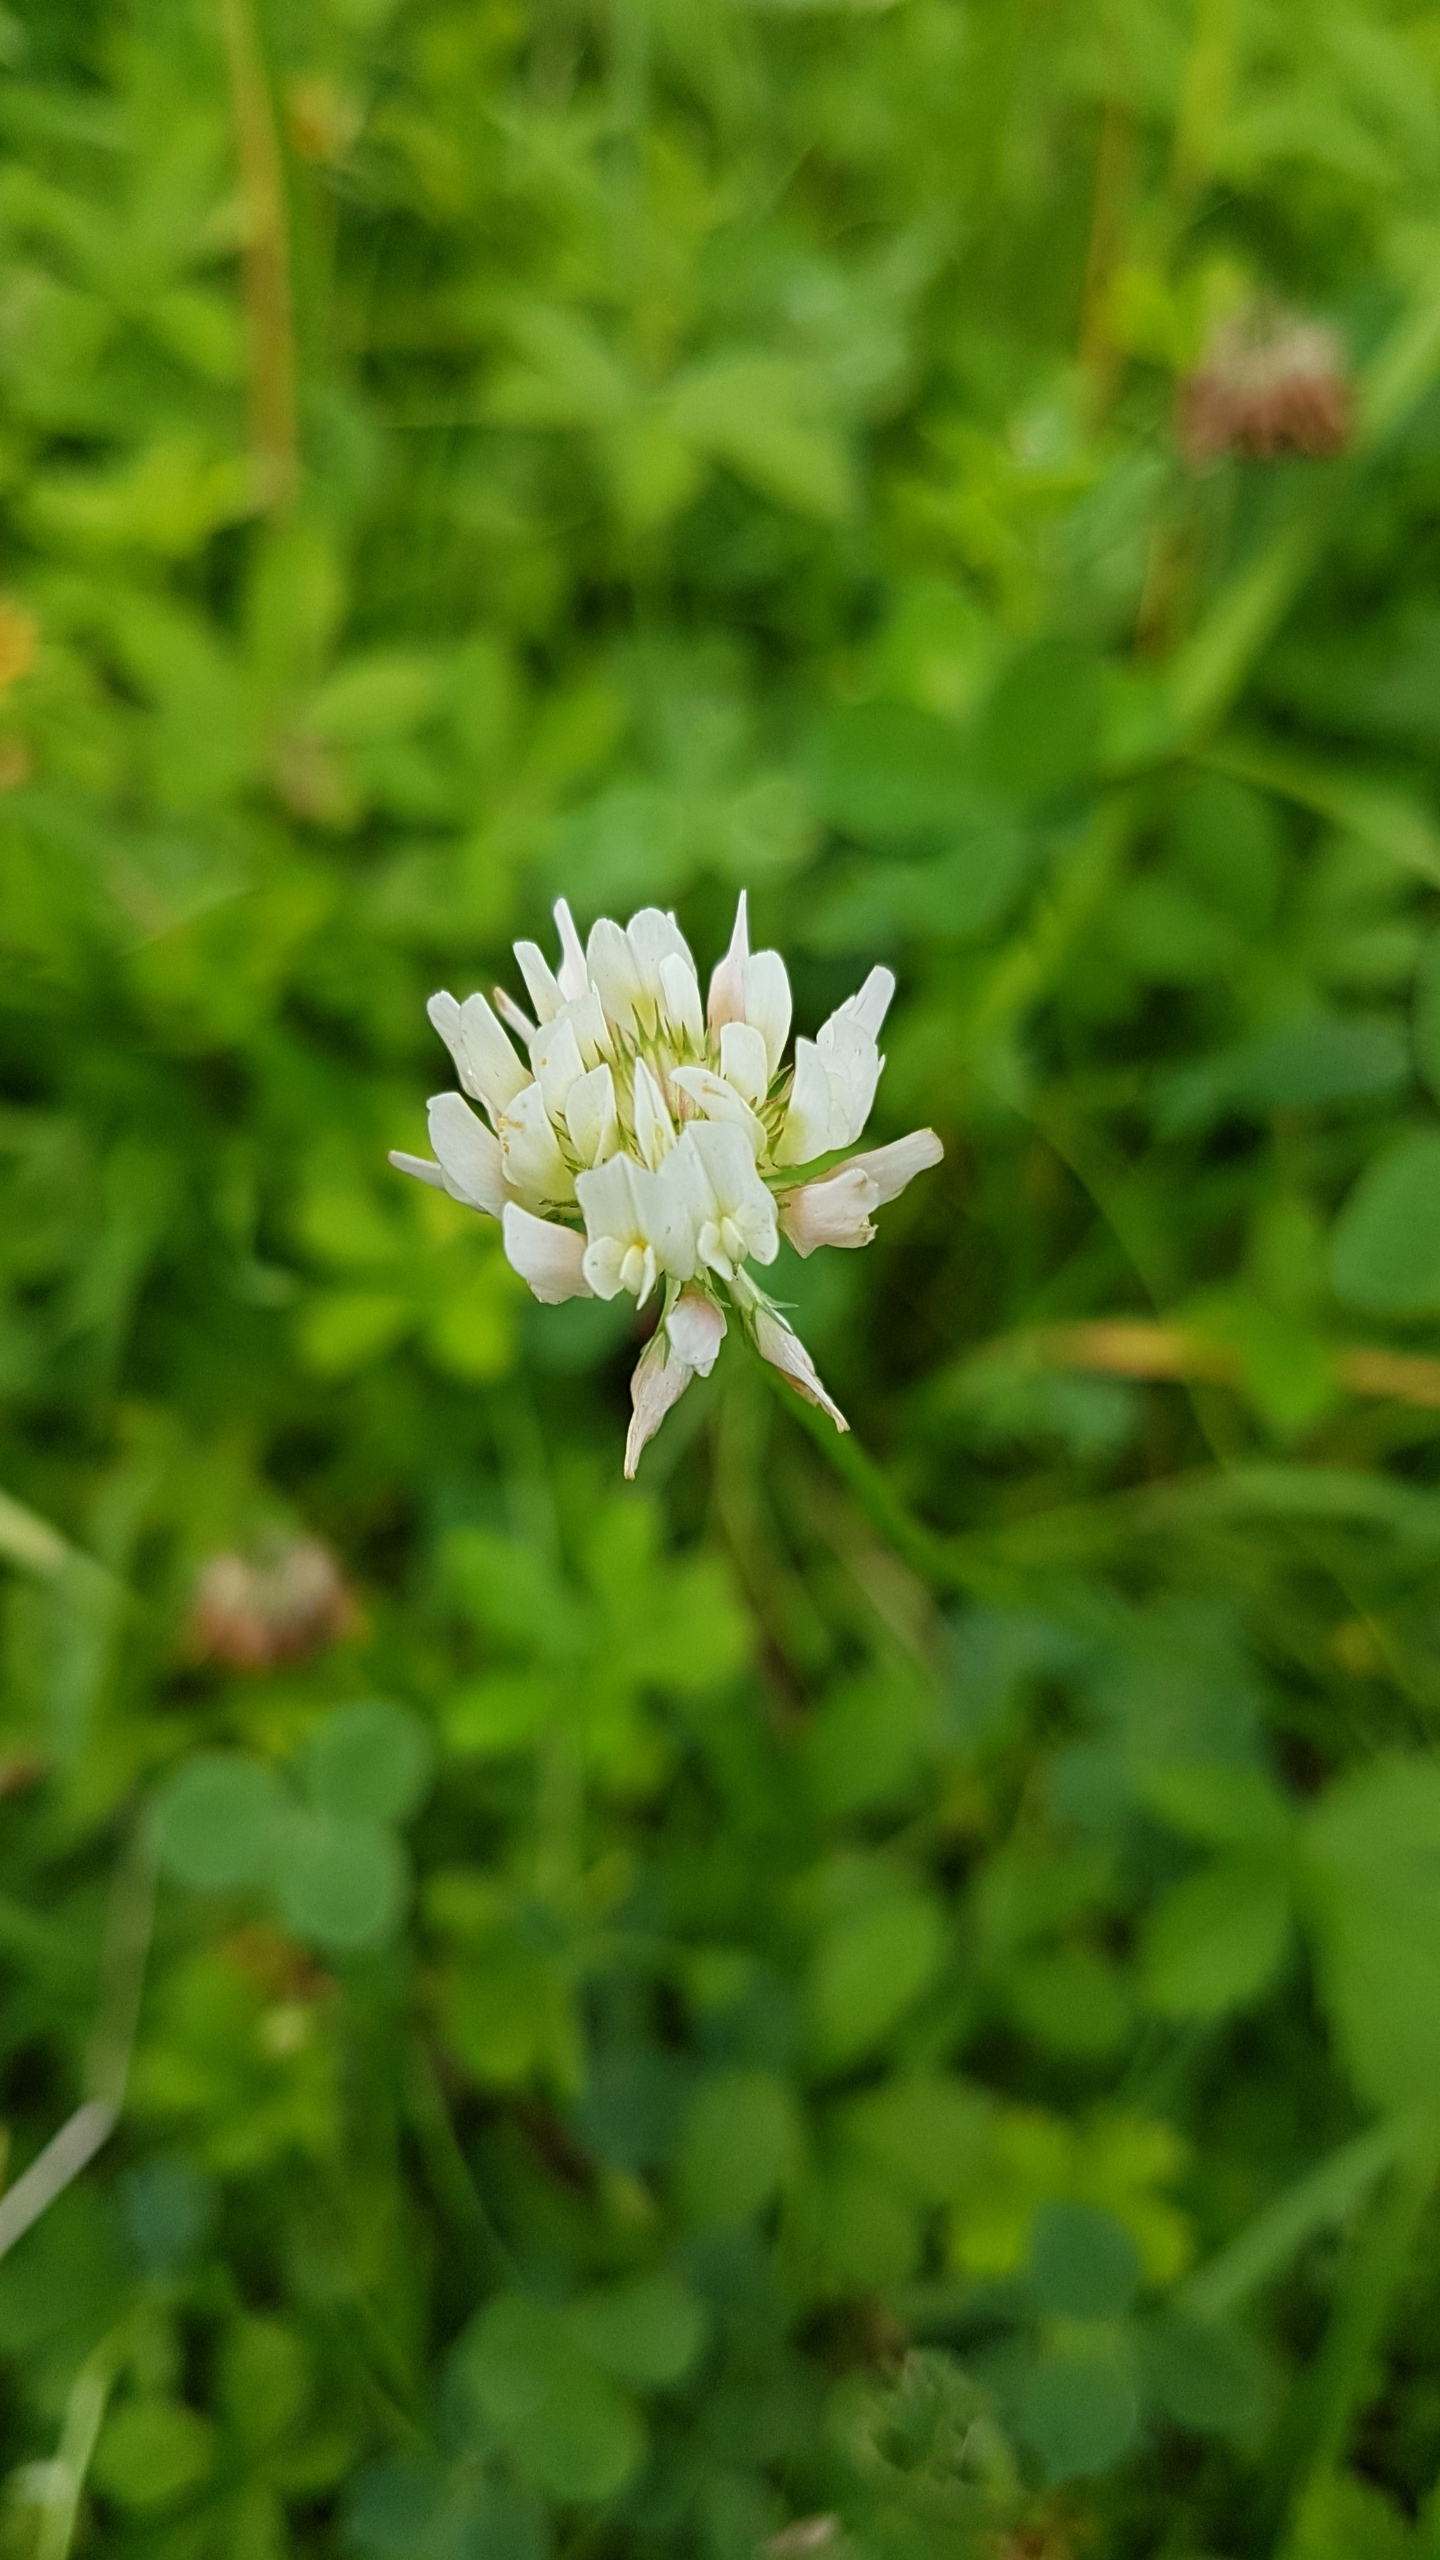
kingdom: Plantae
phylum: Tracheophyta
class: Magnoliopsida
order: Fabales
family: Fabaceae
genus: Trifolium
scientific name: Trifolium repens
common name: Hvid-kløver
